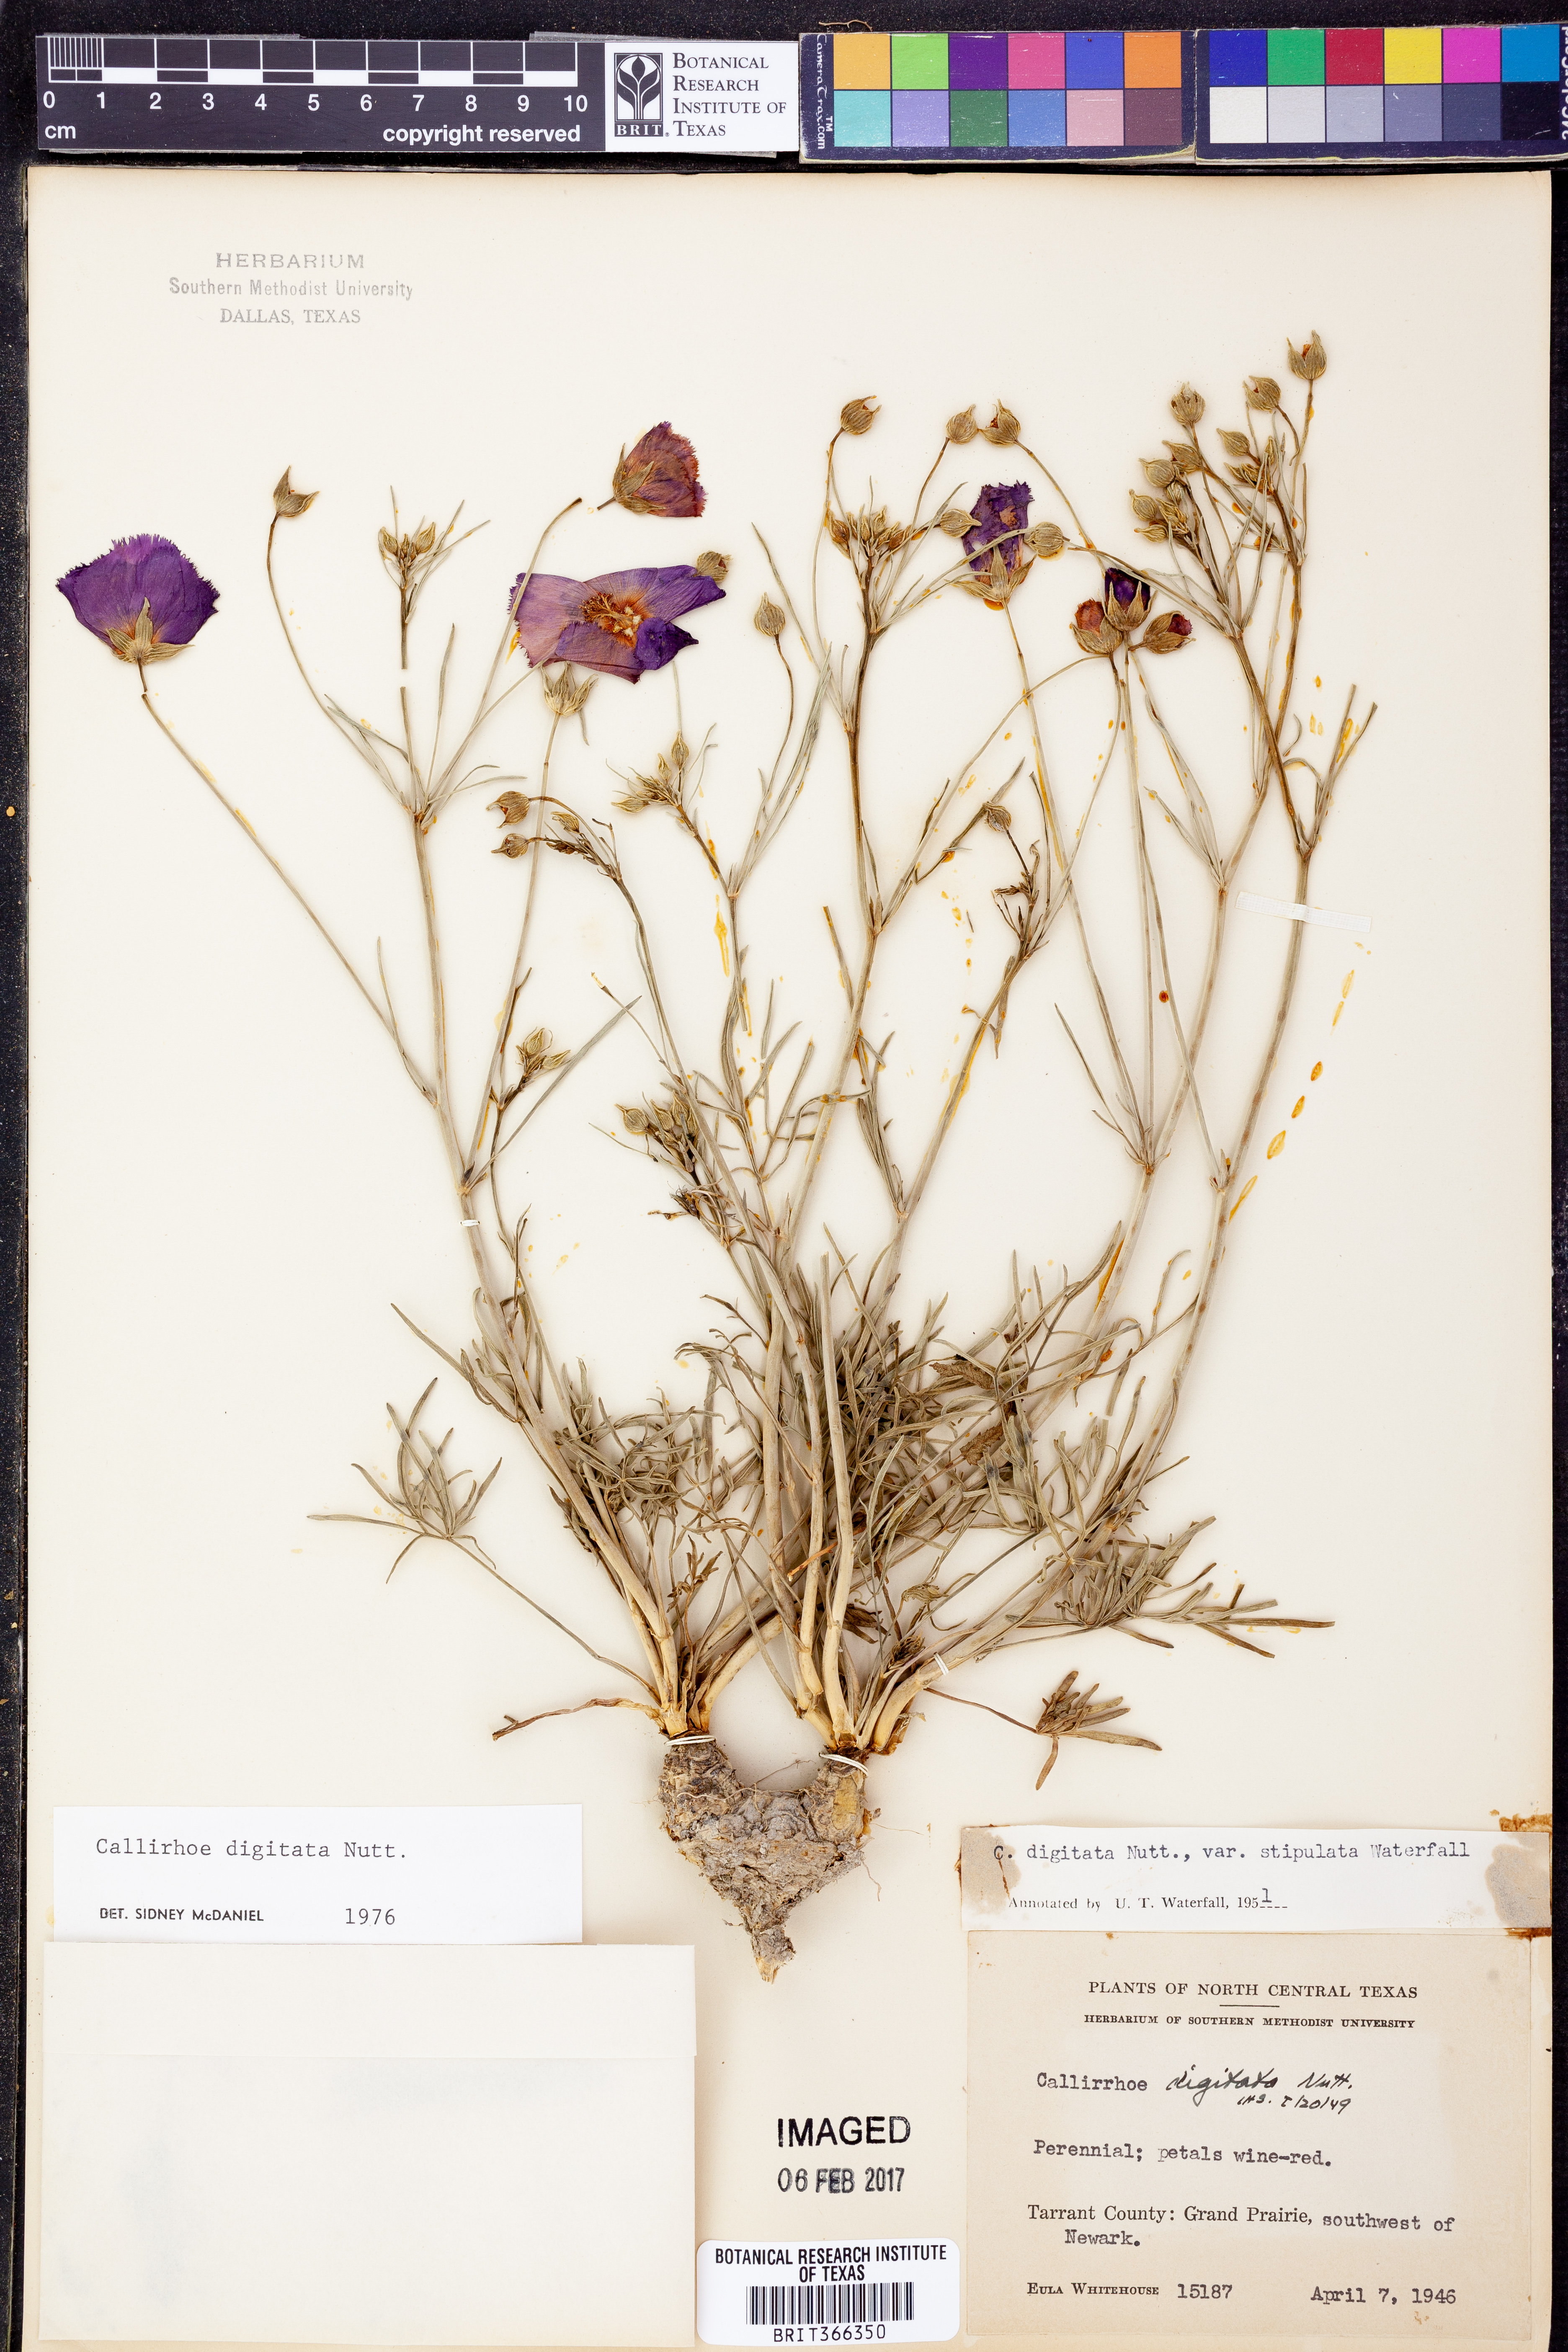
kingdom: Plantae
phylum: Tracheophyta
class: Magnoliopsida
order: Malvales
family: Malvaceae
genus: Callirhoe
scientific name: Callirhoe digitata
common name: Finger poppy-mallow
